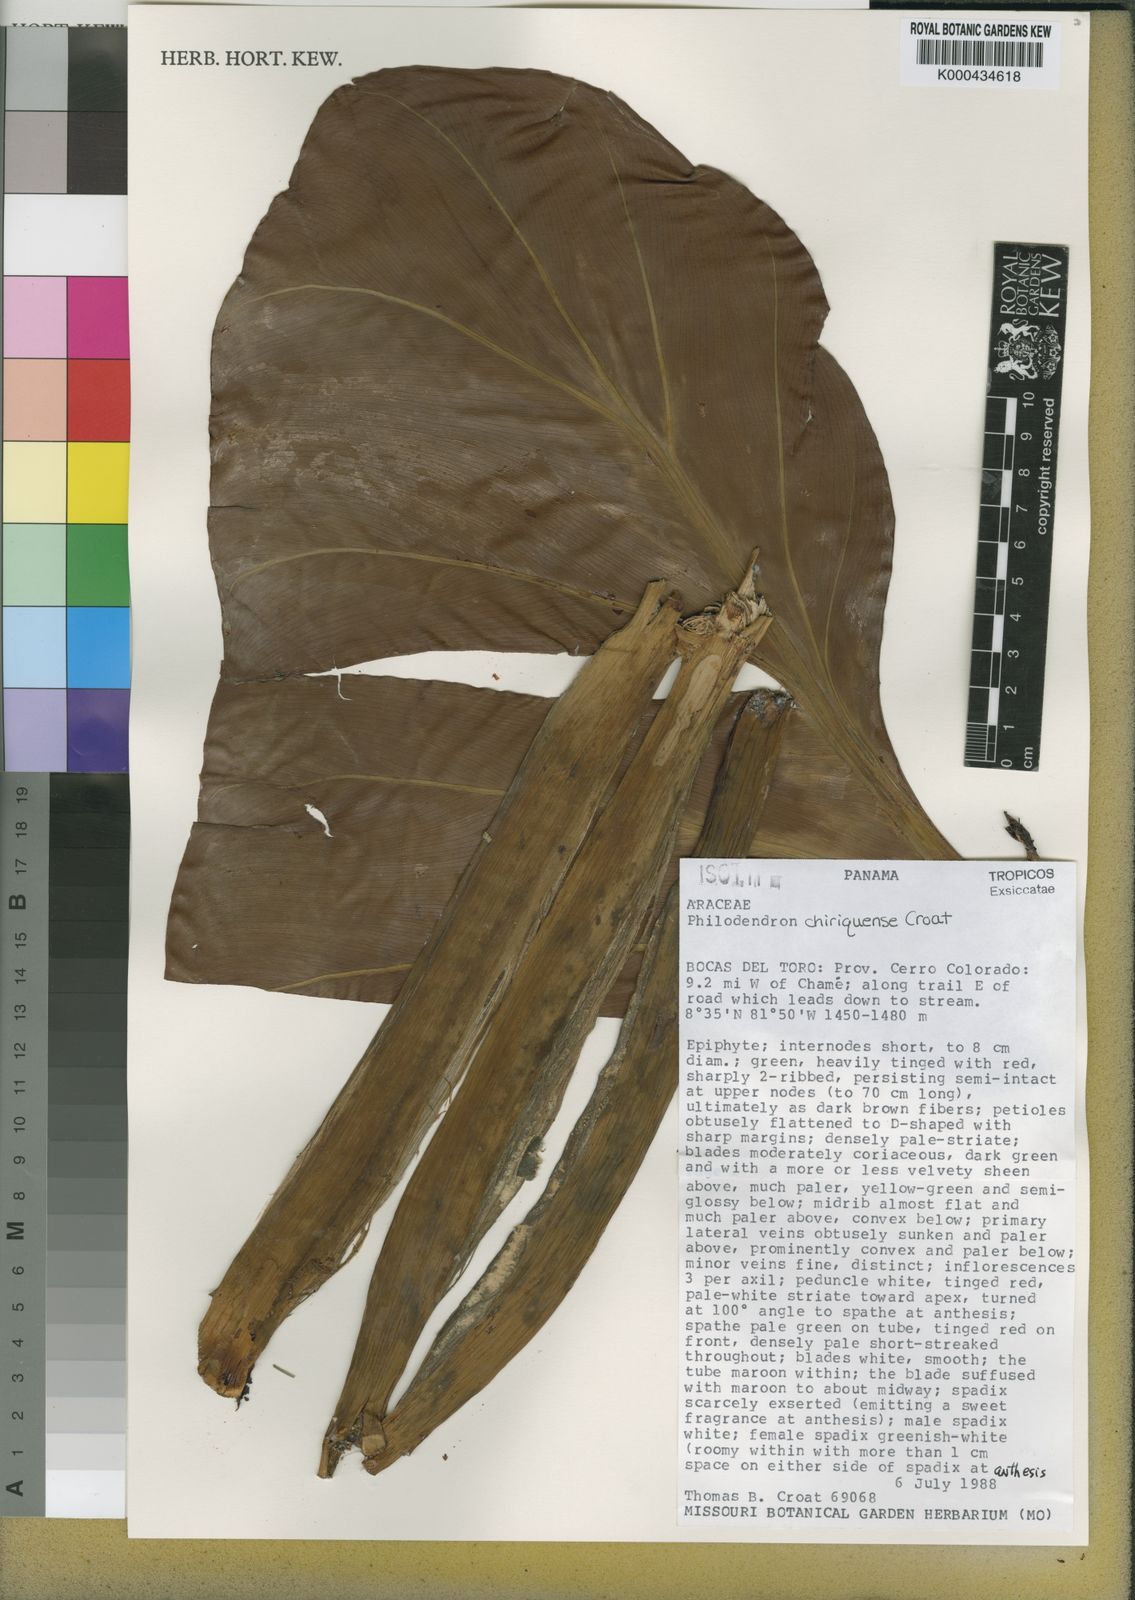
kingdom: Plantae
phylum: Tracheophyta
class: Liliopsida
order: Alismatales
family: Araceae
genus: Philodendron
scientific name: Philodendron chiriquense
